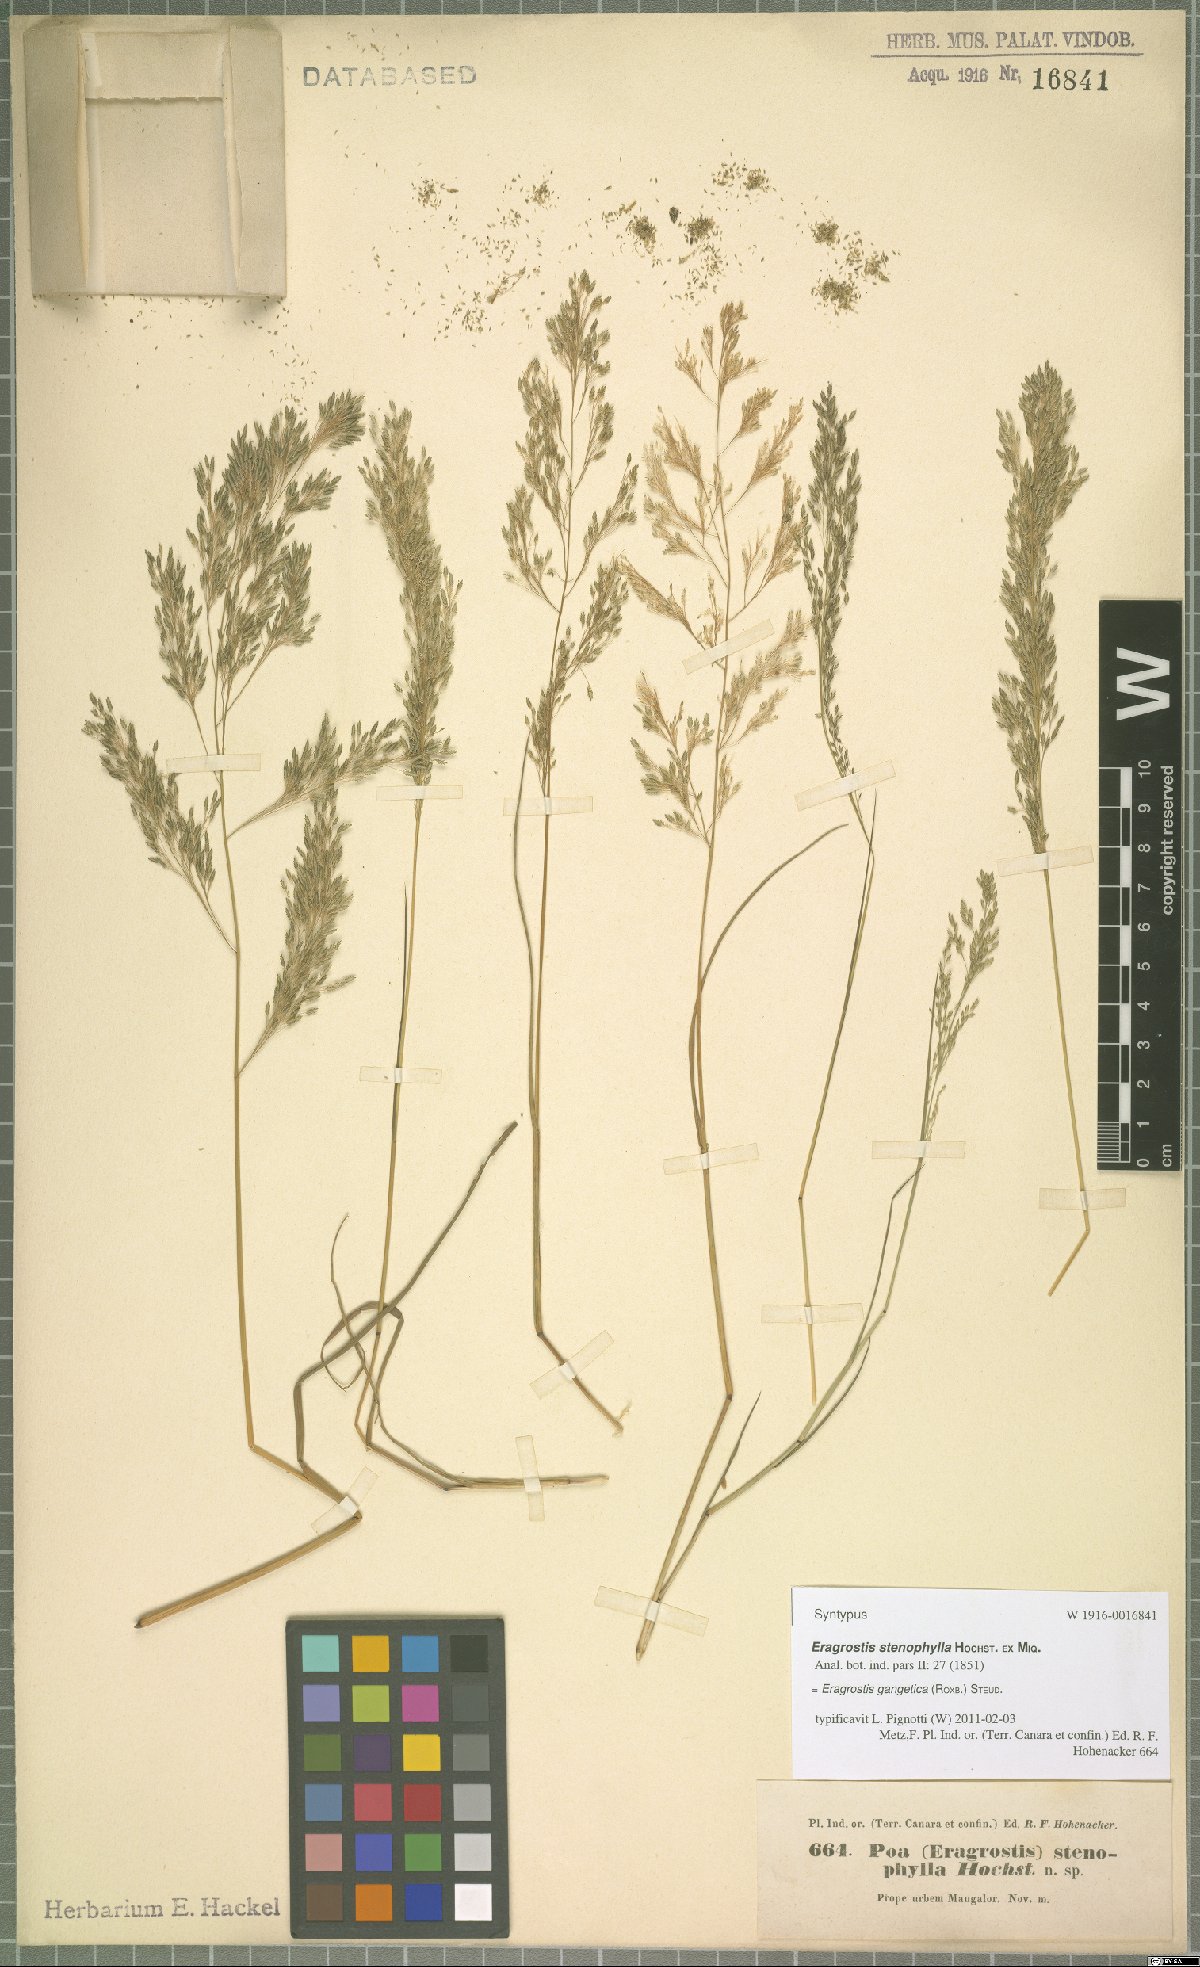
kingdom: Plantae
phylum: Tracheophyta
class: Liliopsida
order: Poales
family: Poaceae
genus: Eragrostis
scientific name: Eragrostis gangetica
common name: Slimflower lovegrass
